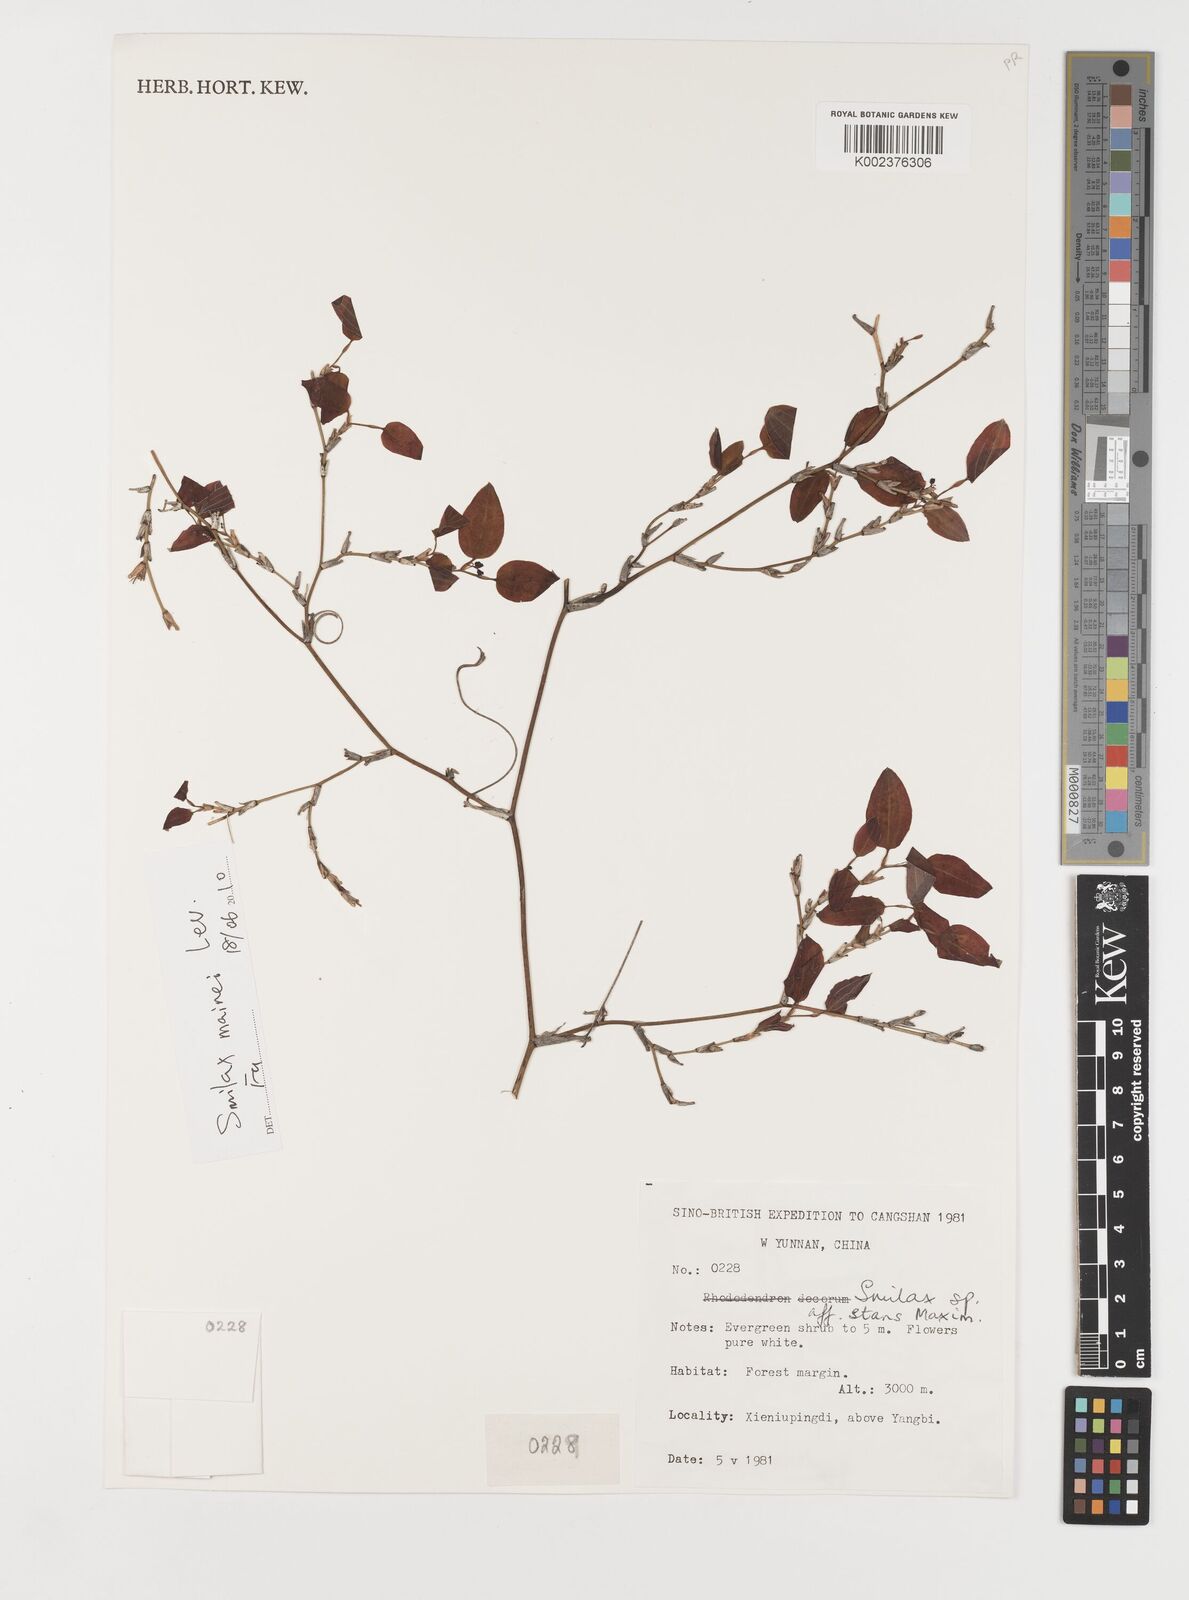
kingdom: Plantae
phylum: Tracheophyta
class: Liliopsida
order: Liliales
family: Smilacaceae
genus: Smilax
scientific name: Smilax stans
